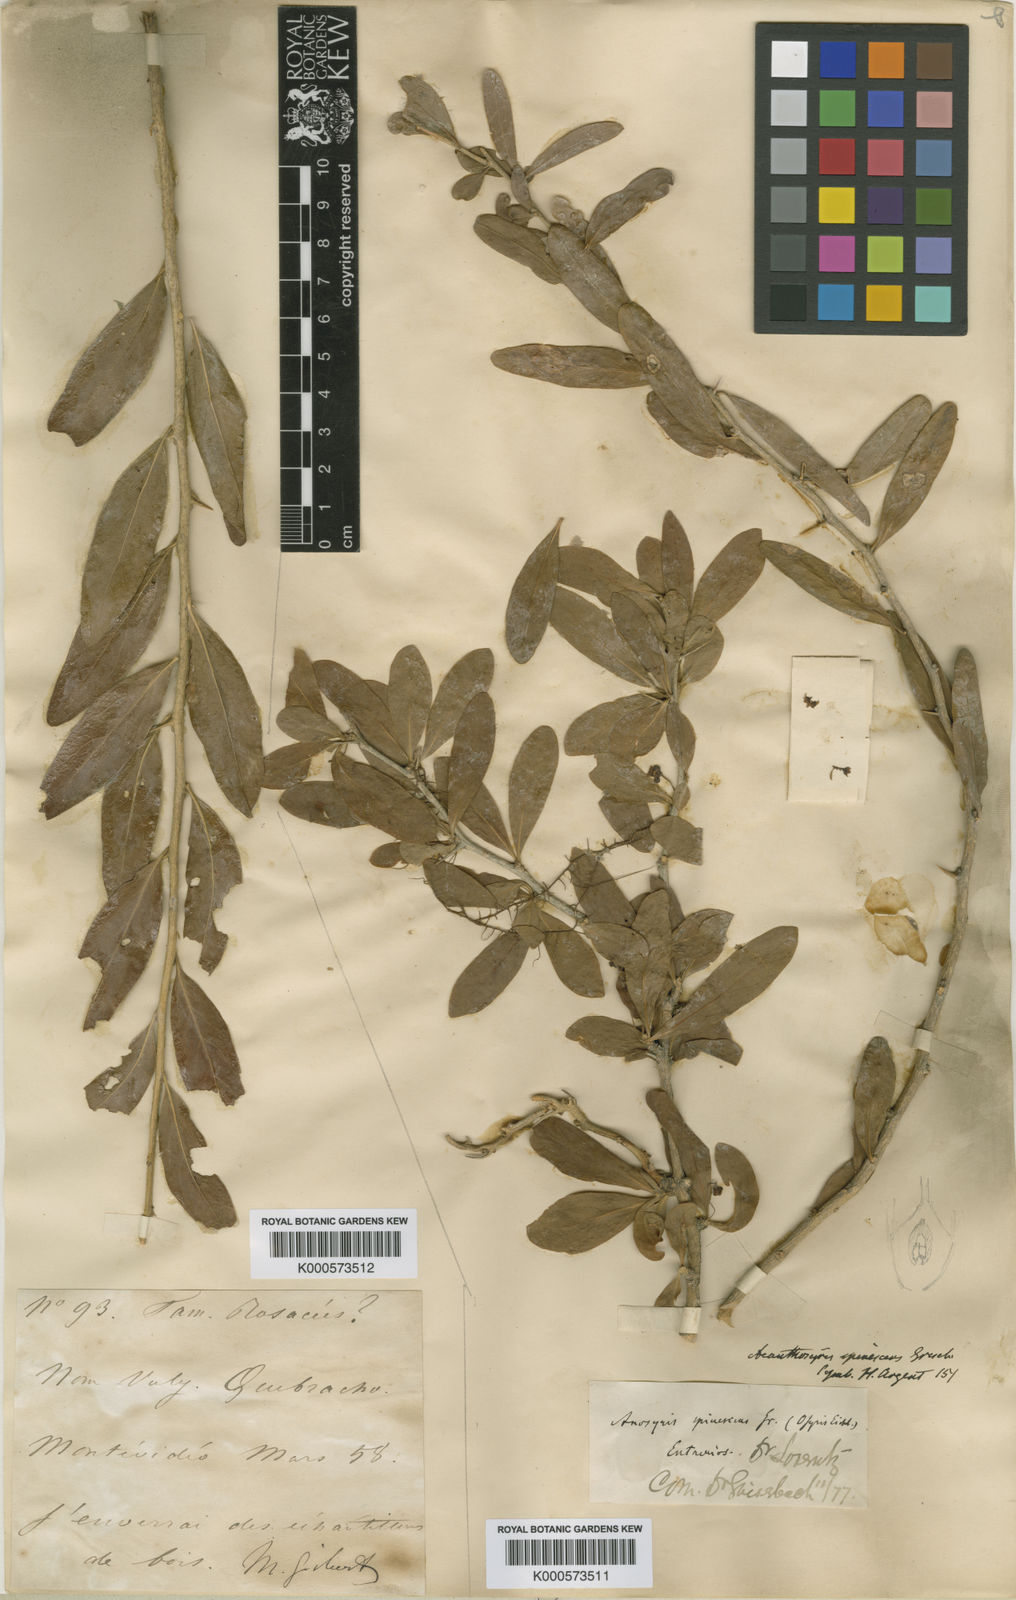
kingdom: Plantae
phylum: Tracheophyta
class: Magnoliopsida
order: Santalales
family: Cervantesiaceae
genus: Acanthosyris
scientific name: Acanthosyris spinescens
